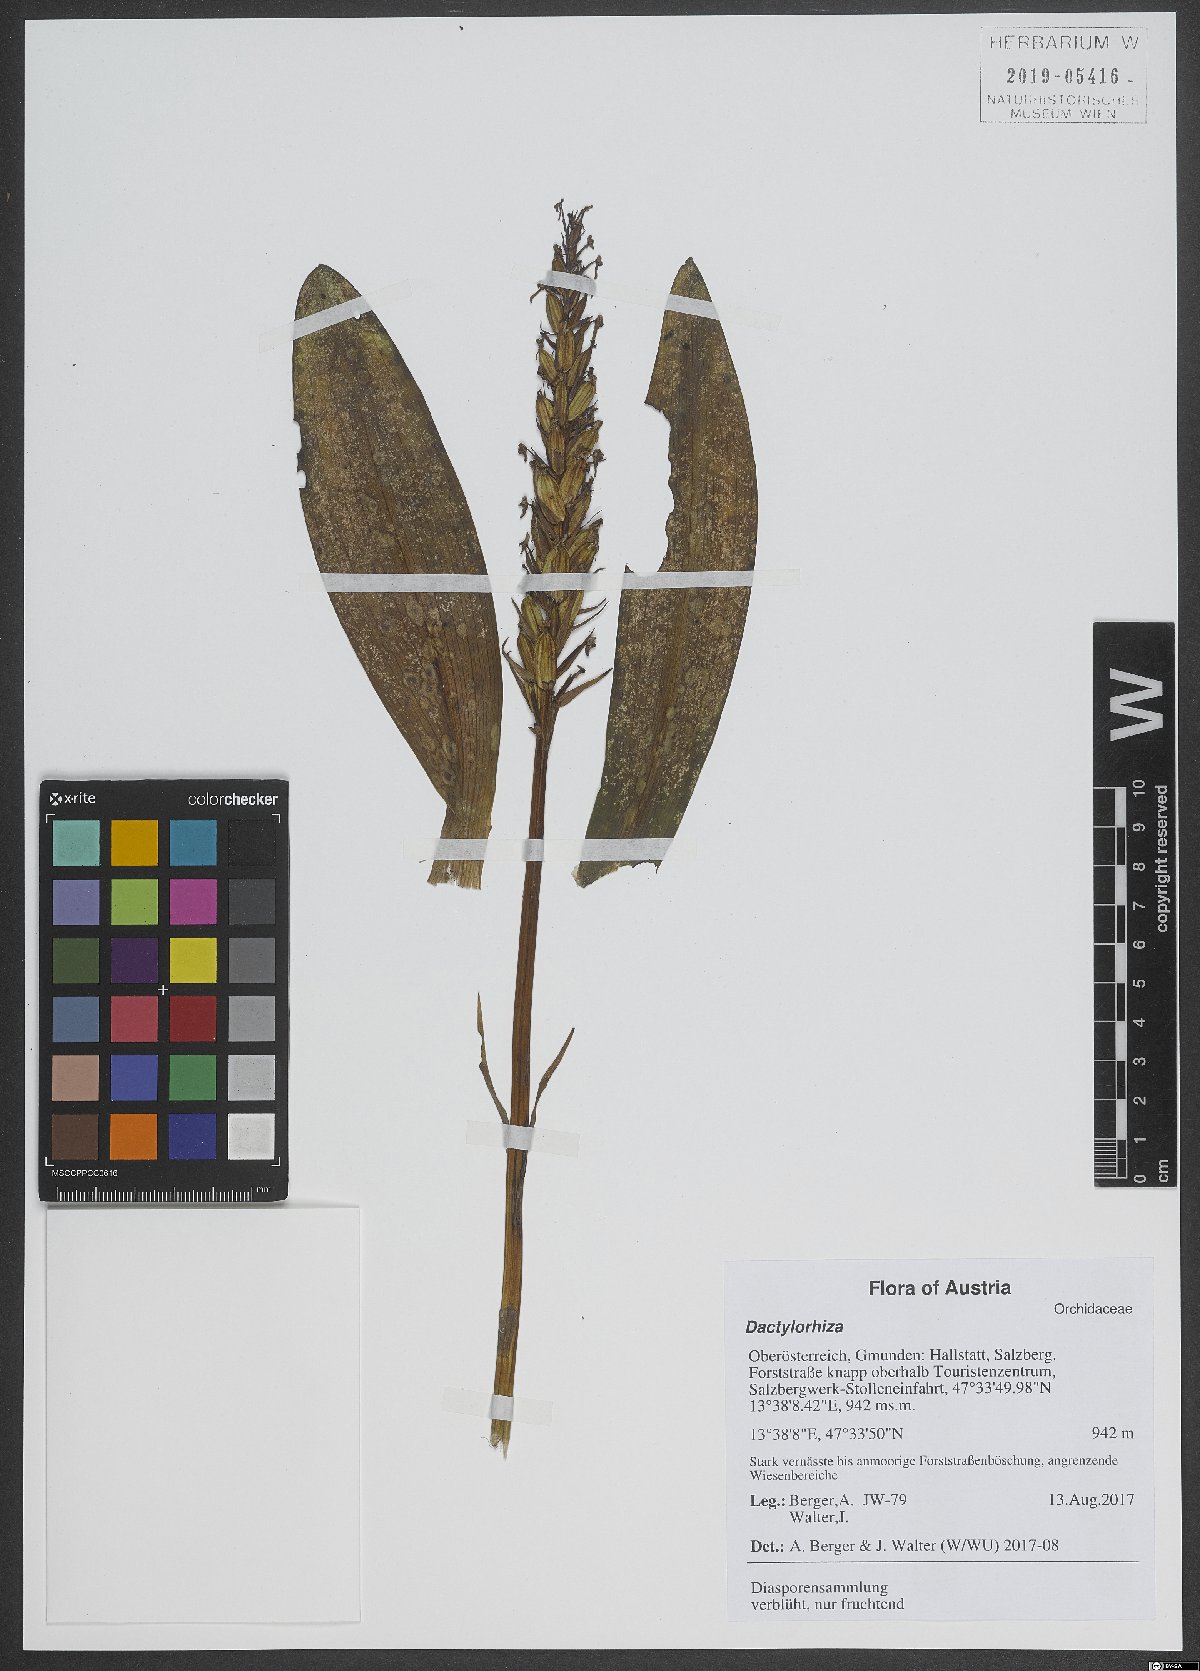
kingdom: Plantae
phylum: Tracheophyta
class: Liliopsida
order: Asparagales
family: Orchidaceae
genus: Dactylorhiza
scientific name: Dactylorhiza
